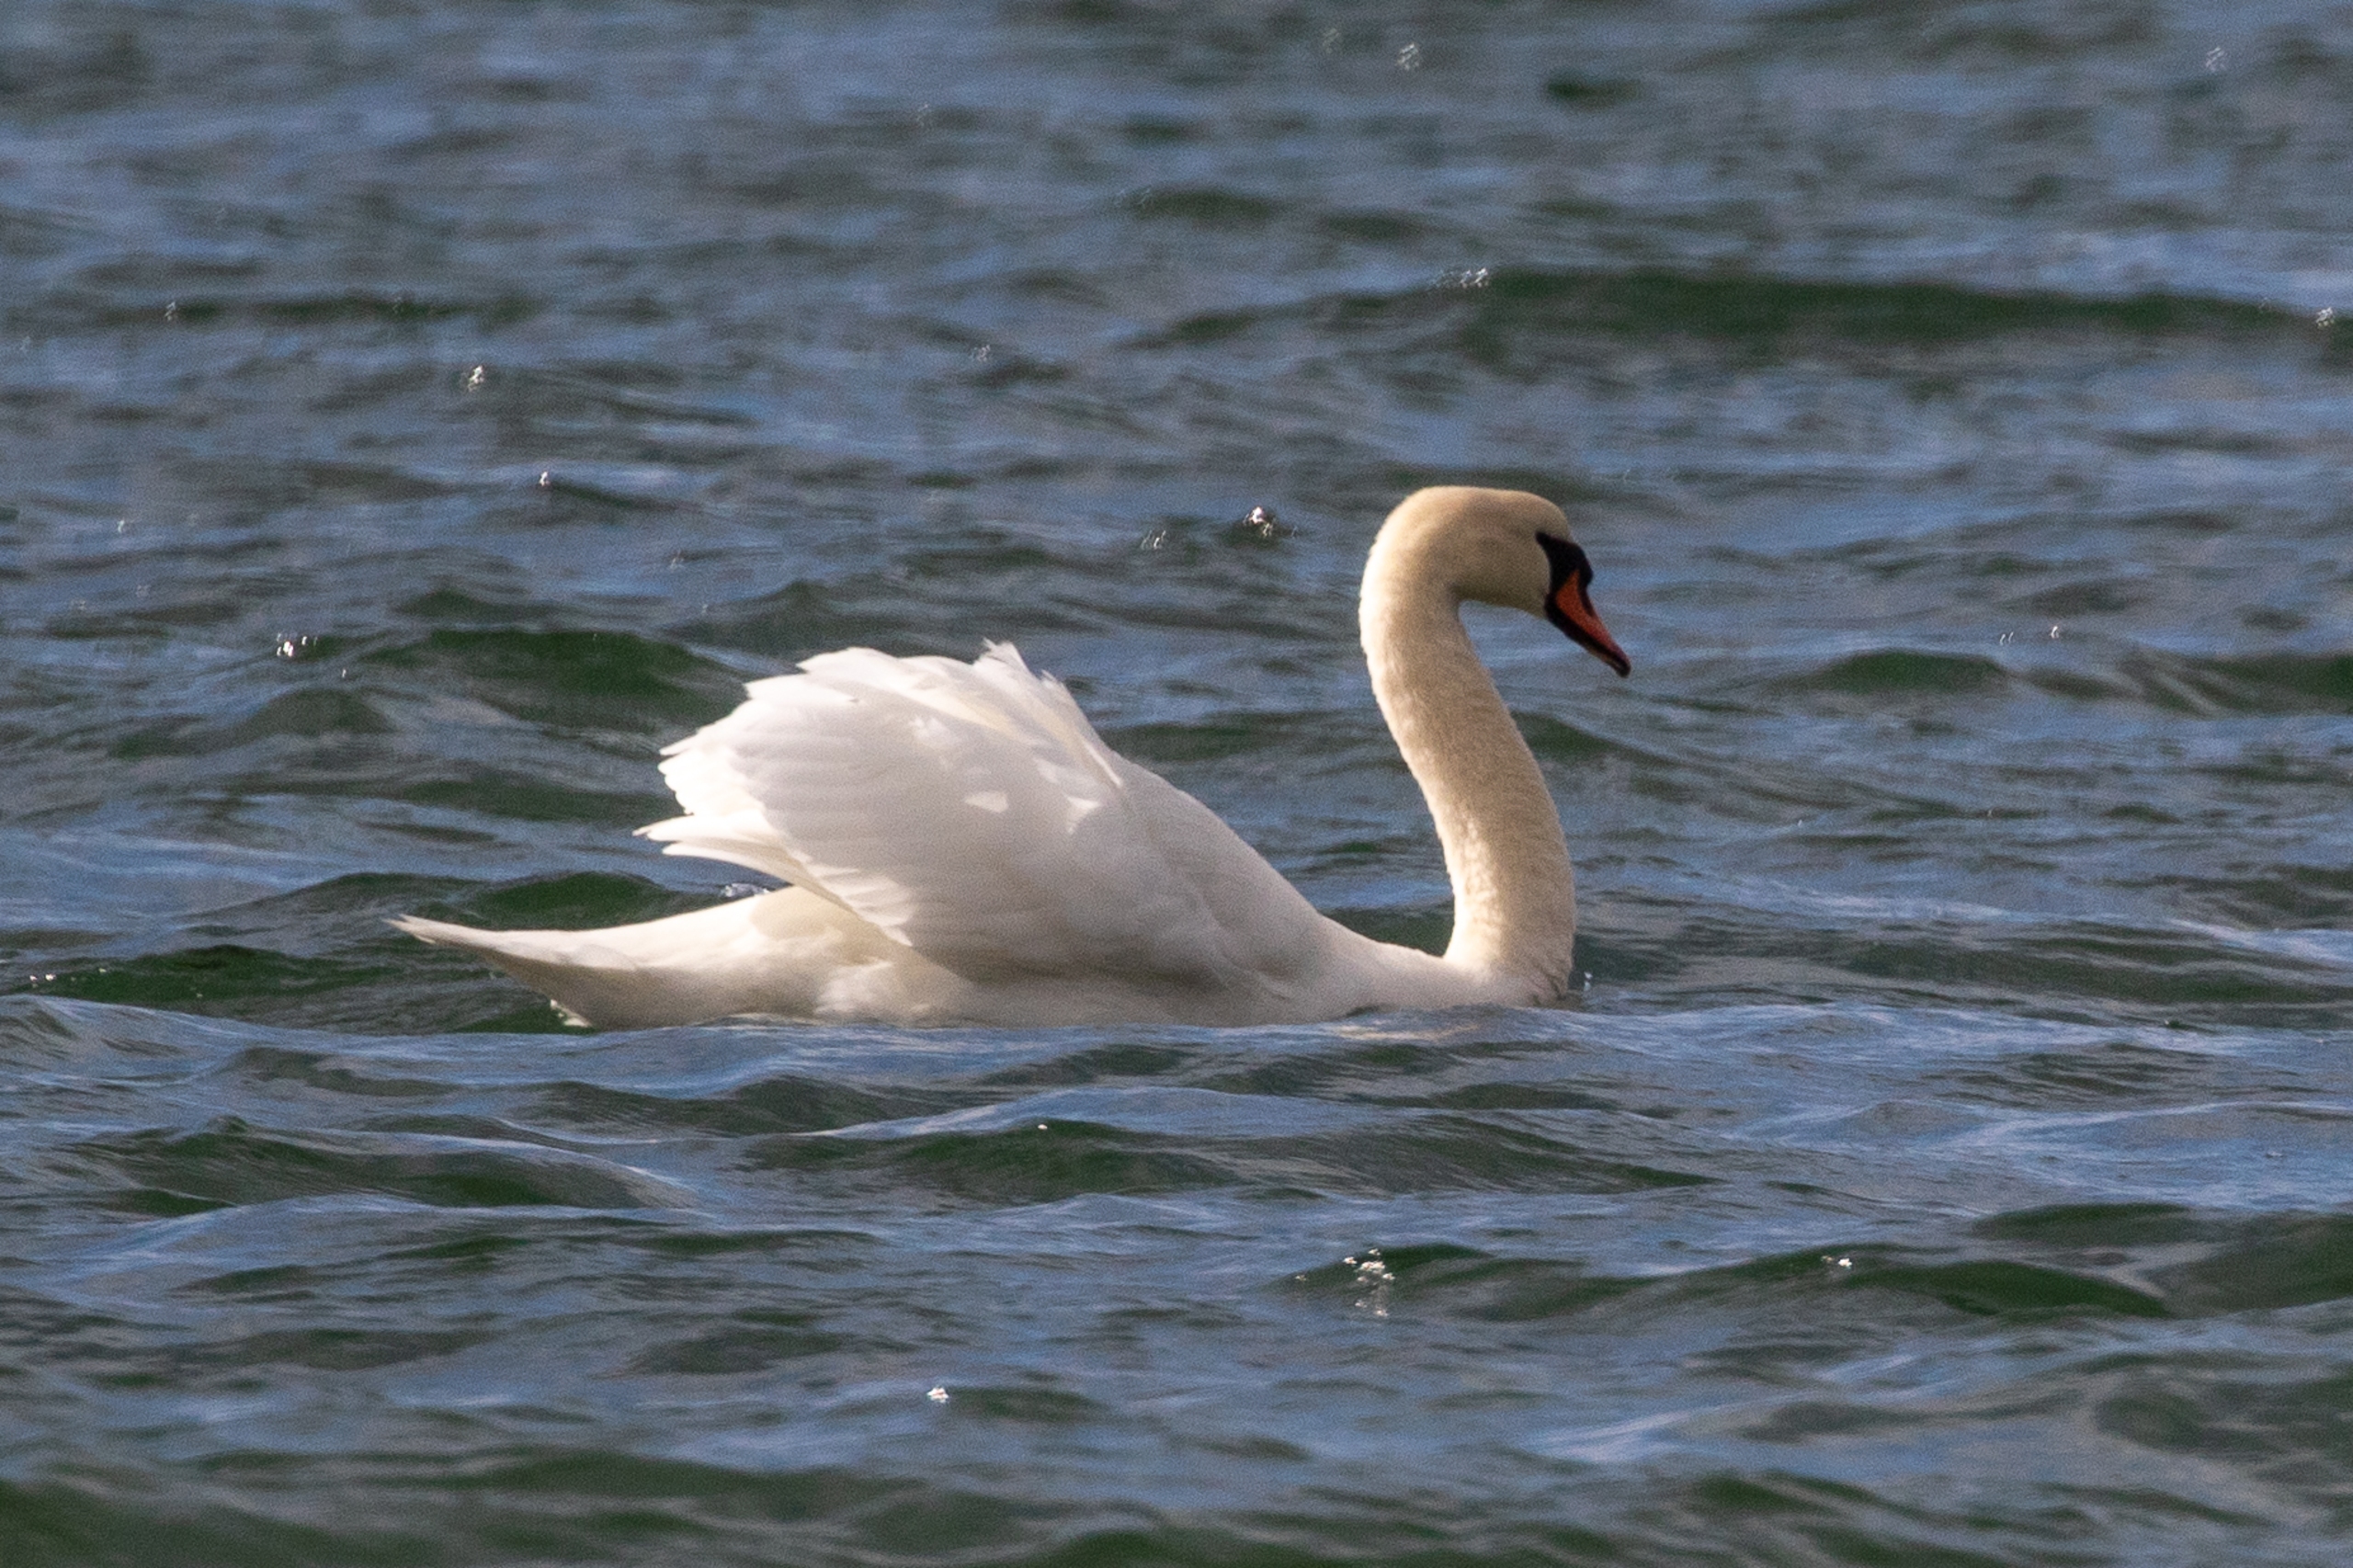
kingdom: Animalia
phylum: Chordata
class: Aves
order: Anseriformes
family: Anatidae
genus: Cygnus
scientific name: Cygnus olor
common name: Knopsvane
